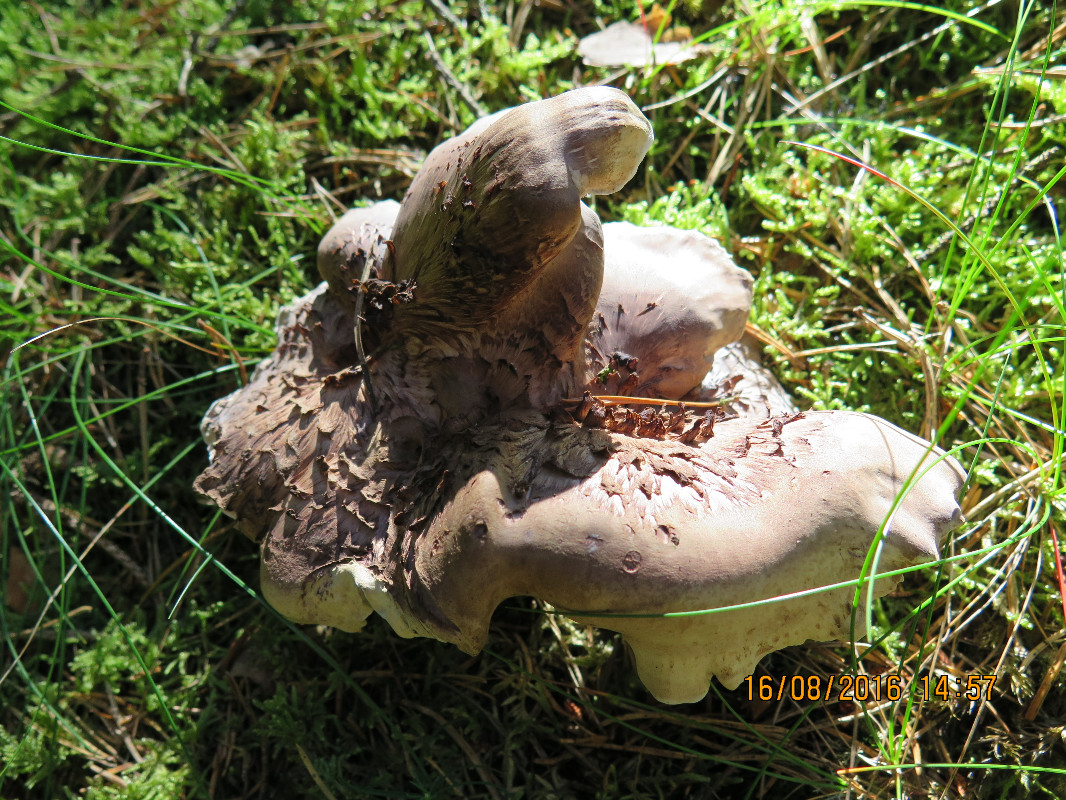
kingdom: Fungi
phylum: Basidiomycota
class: Agaricomycetes
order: Thelephorales
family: Thelephoraceae
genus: Phellodon
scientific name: Phellodon violascens
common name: violetbrun duftpigsvamp
